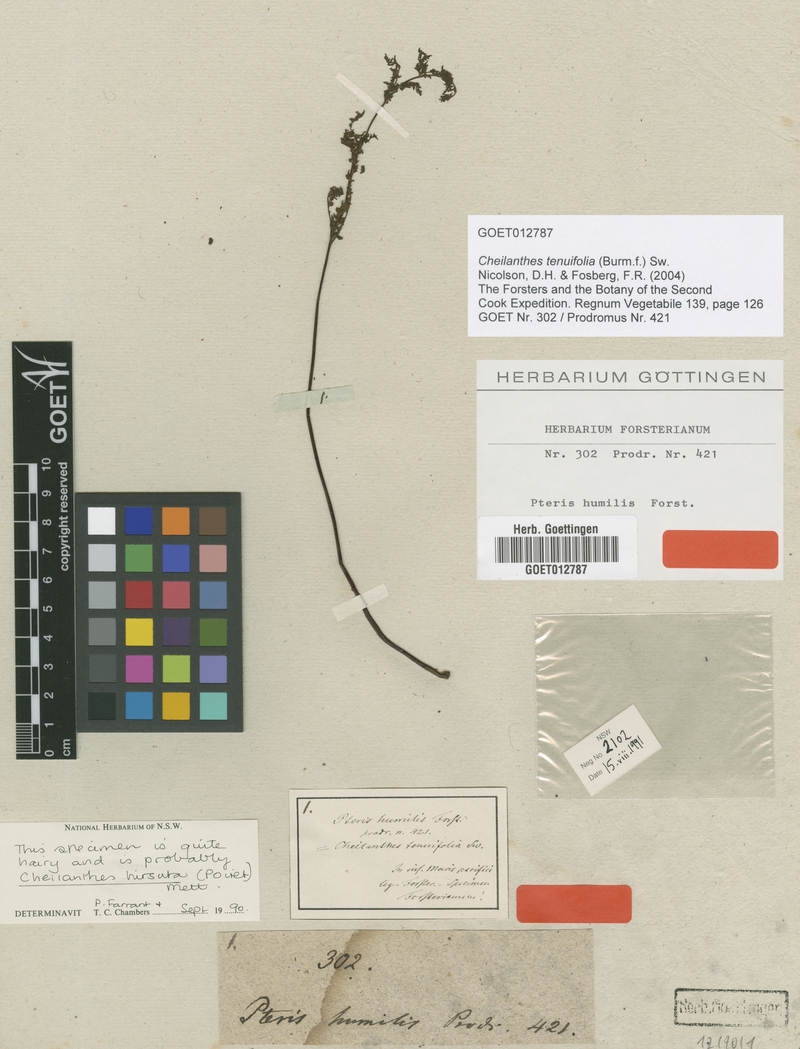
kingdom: Plantae
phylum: Tracheophyta
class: Polypodiopsida
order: Polypodiales
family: Pteridaceae
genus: Cheilanthes
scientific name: Cheilanthes tenuifolia
